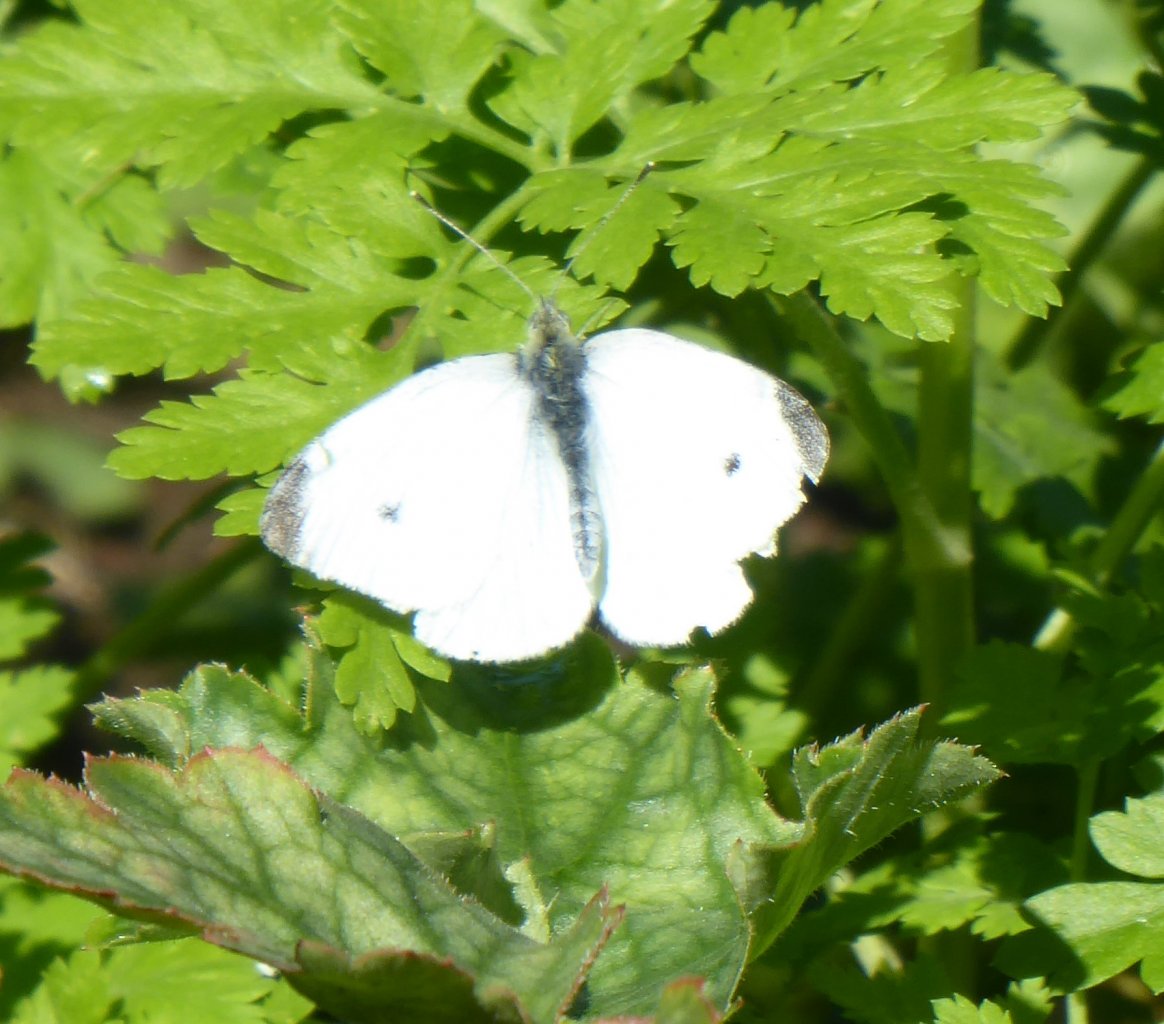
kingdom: Animalia
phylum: Arthropoda
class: Insecta
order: Lepidoptera
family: Pieridae
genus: Pieris
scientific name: Pieris rapae
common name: Cabbage White
